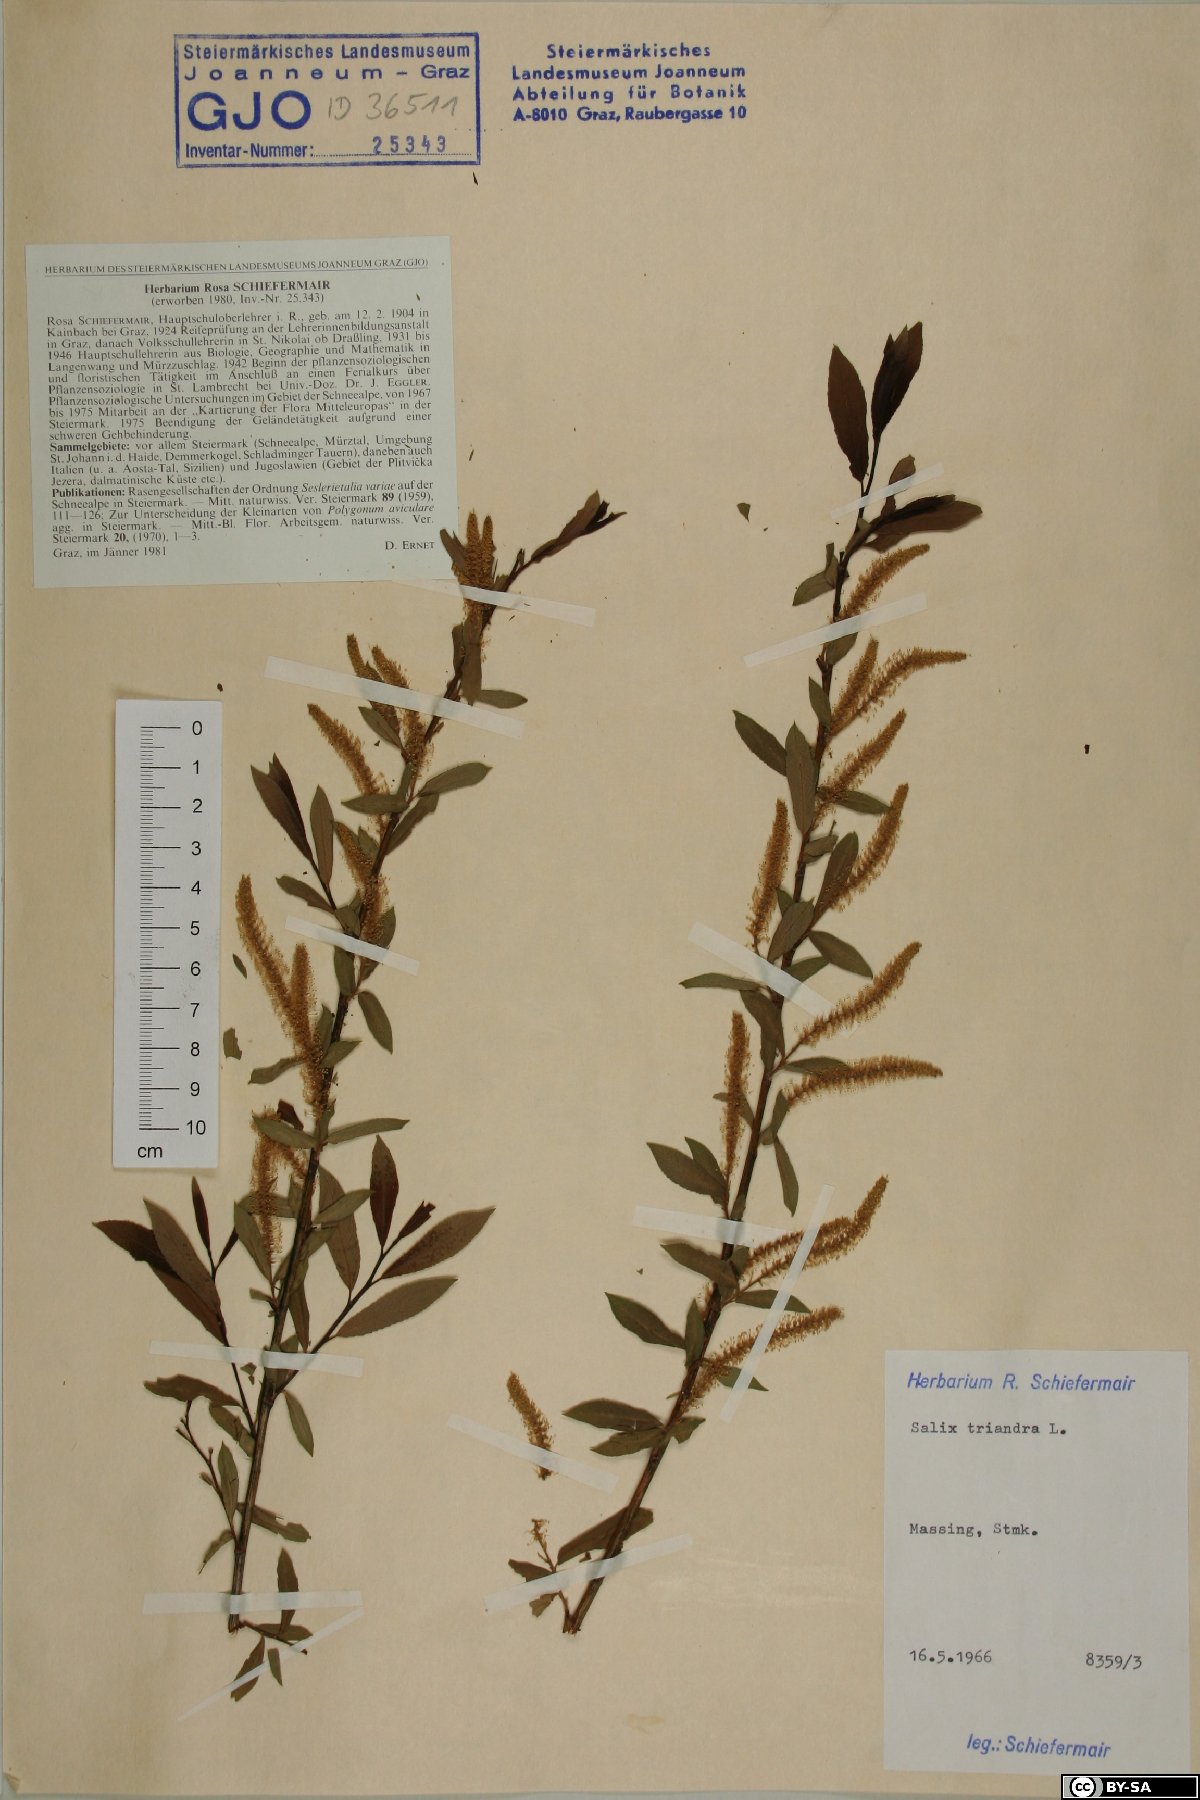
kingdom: Plantae
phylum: Tracheophyta
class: Magnoliopsida
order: Malpighiales
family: Salicaceae
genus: Salix
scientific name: Salix triandra
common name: Almond willow
